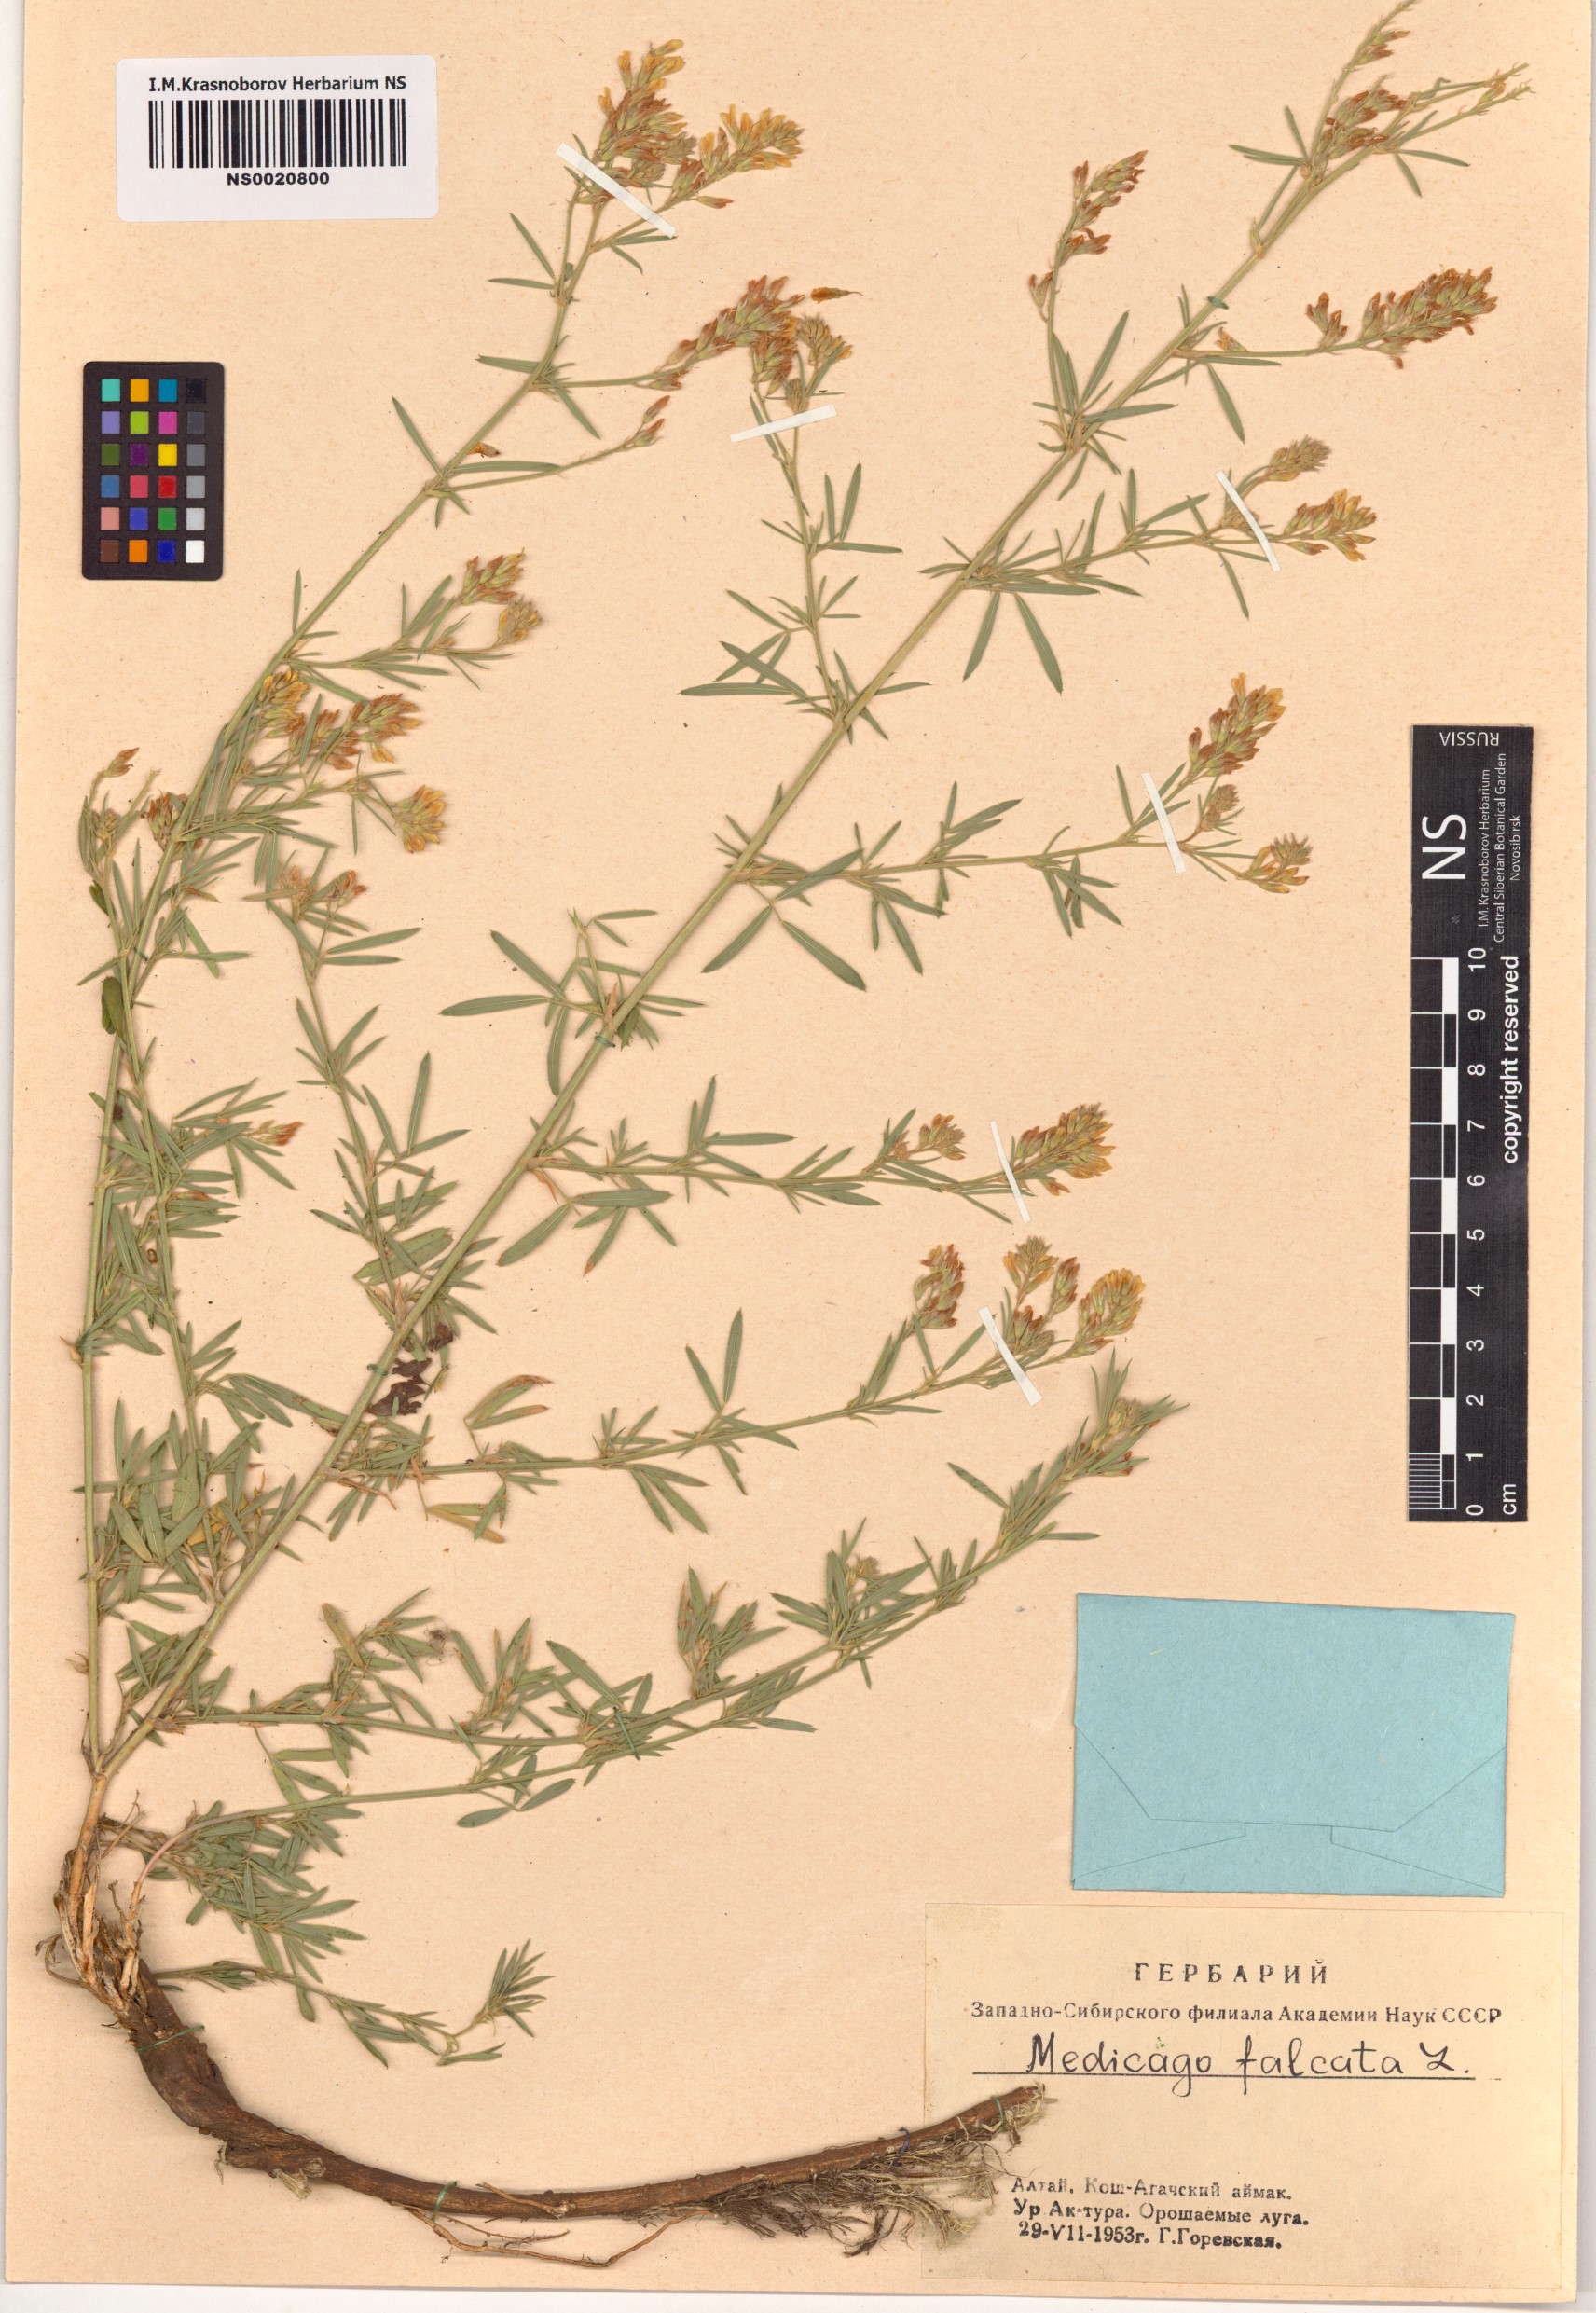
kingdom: Plantae
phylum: Tracheophyta
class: Magnoliopsida
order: Fabales
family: Fabaceae
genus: Medicago
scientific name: Medicago falcata
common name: Sickle medick
